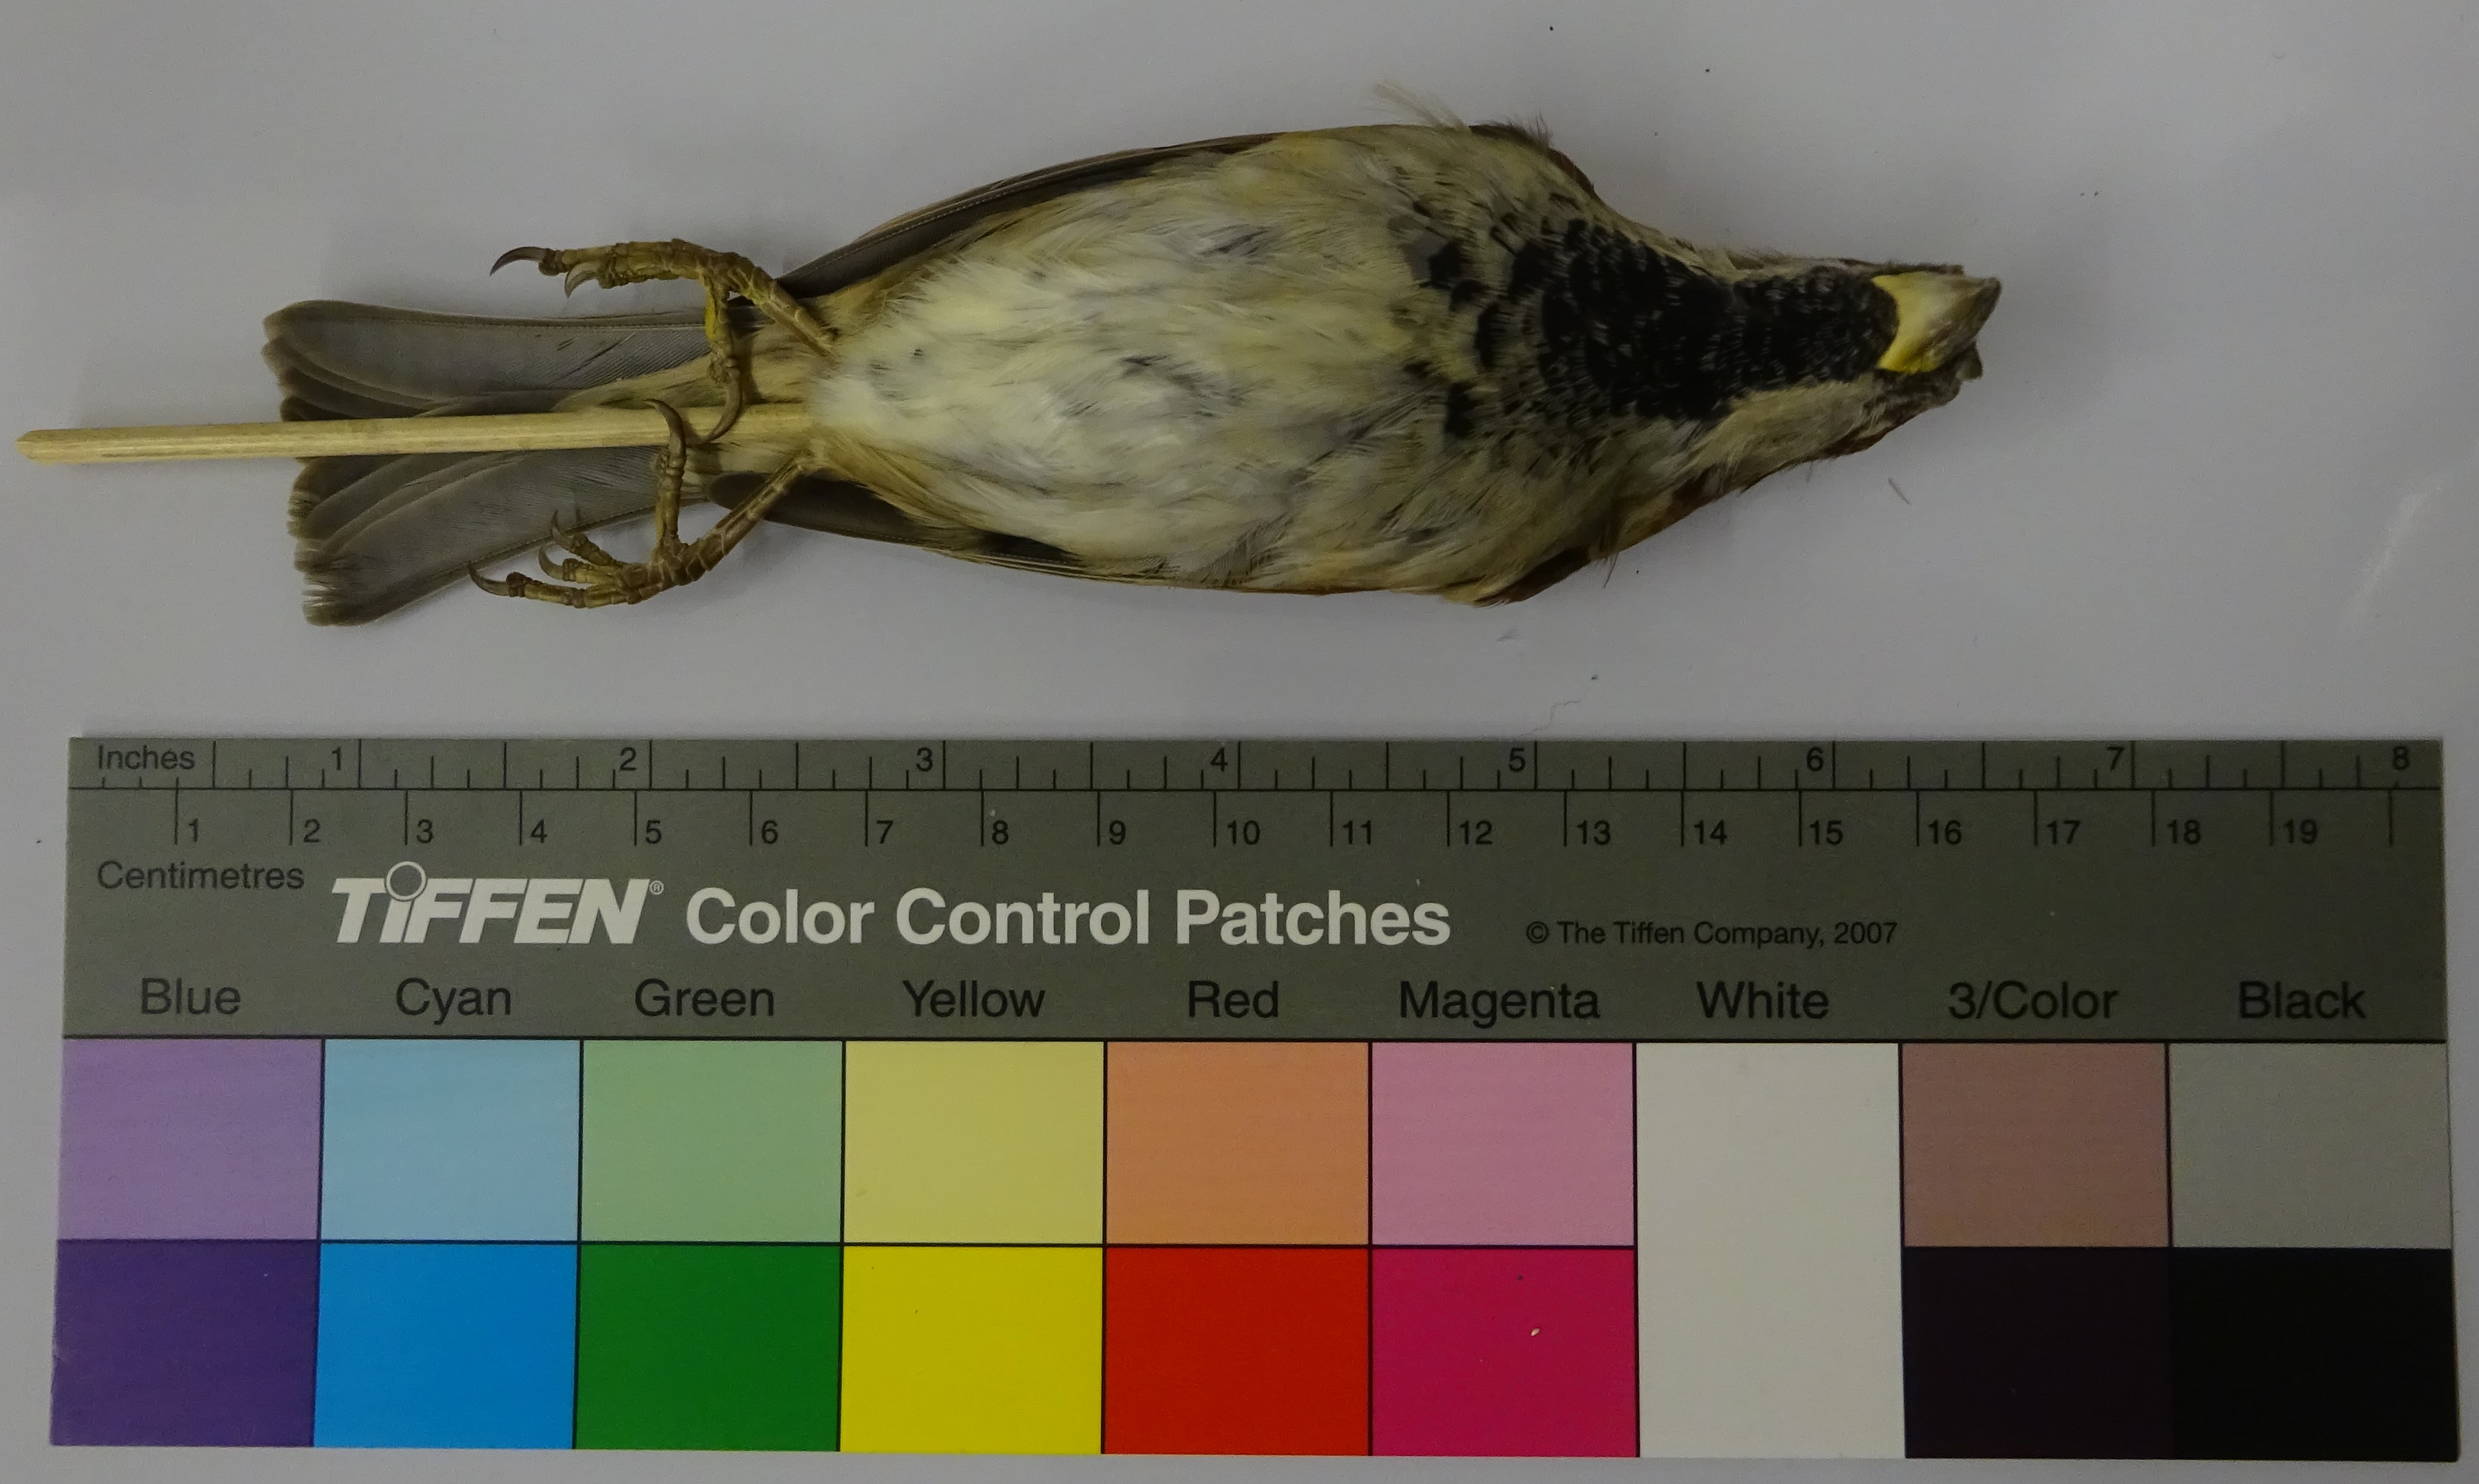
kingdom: Animalia
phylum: Chordata
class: Aves
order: Passeriformes
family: Passeridae
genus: Passer
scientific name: Passer domesticus
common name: House sparrow
